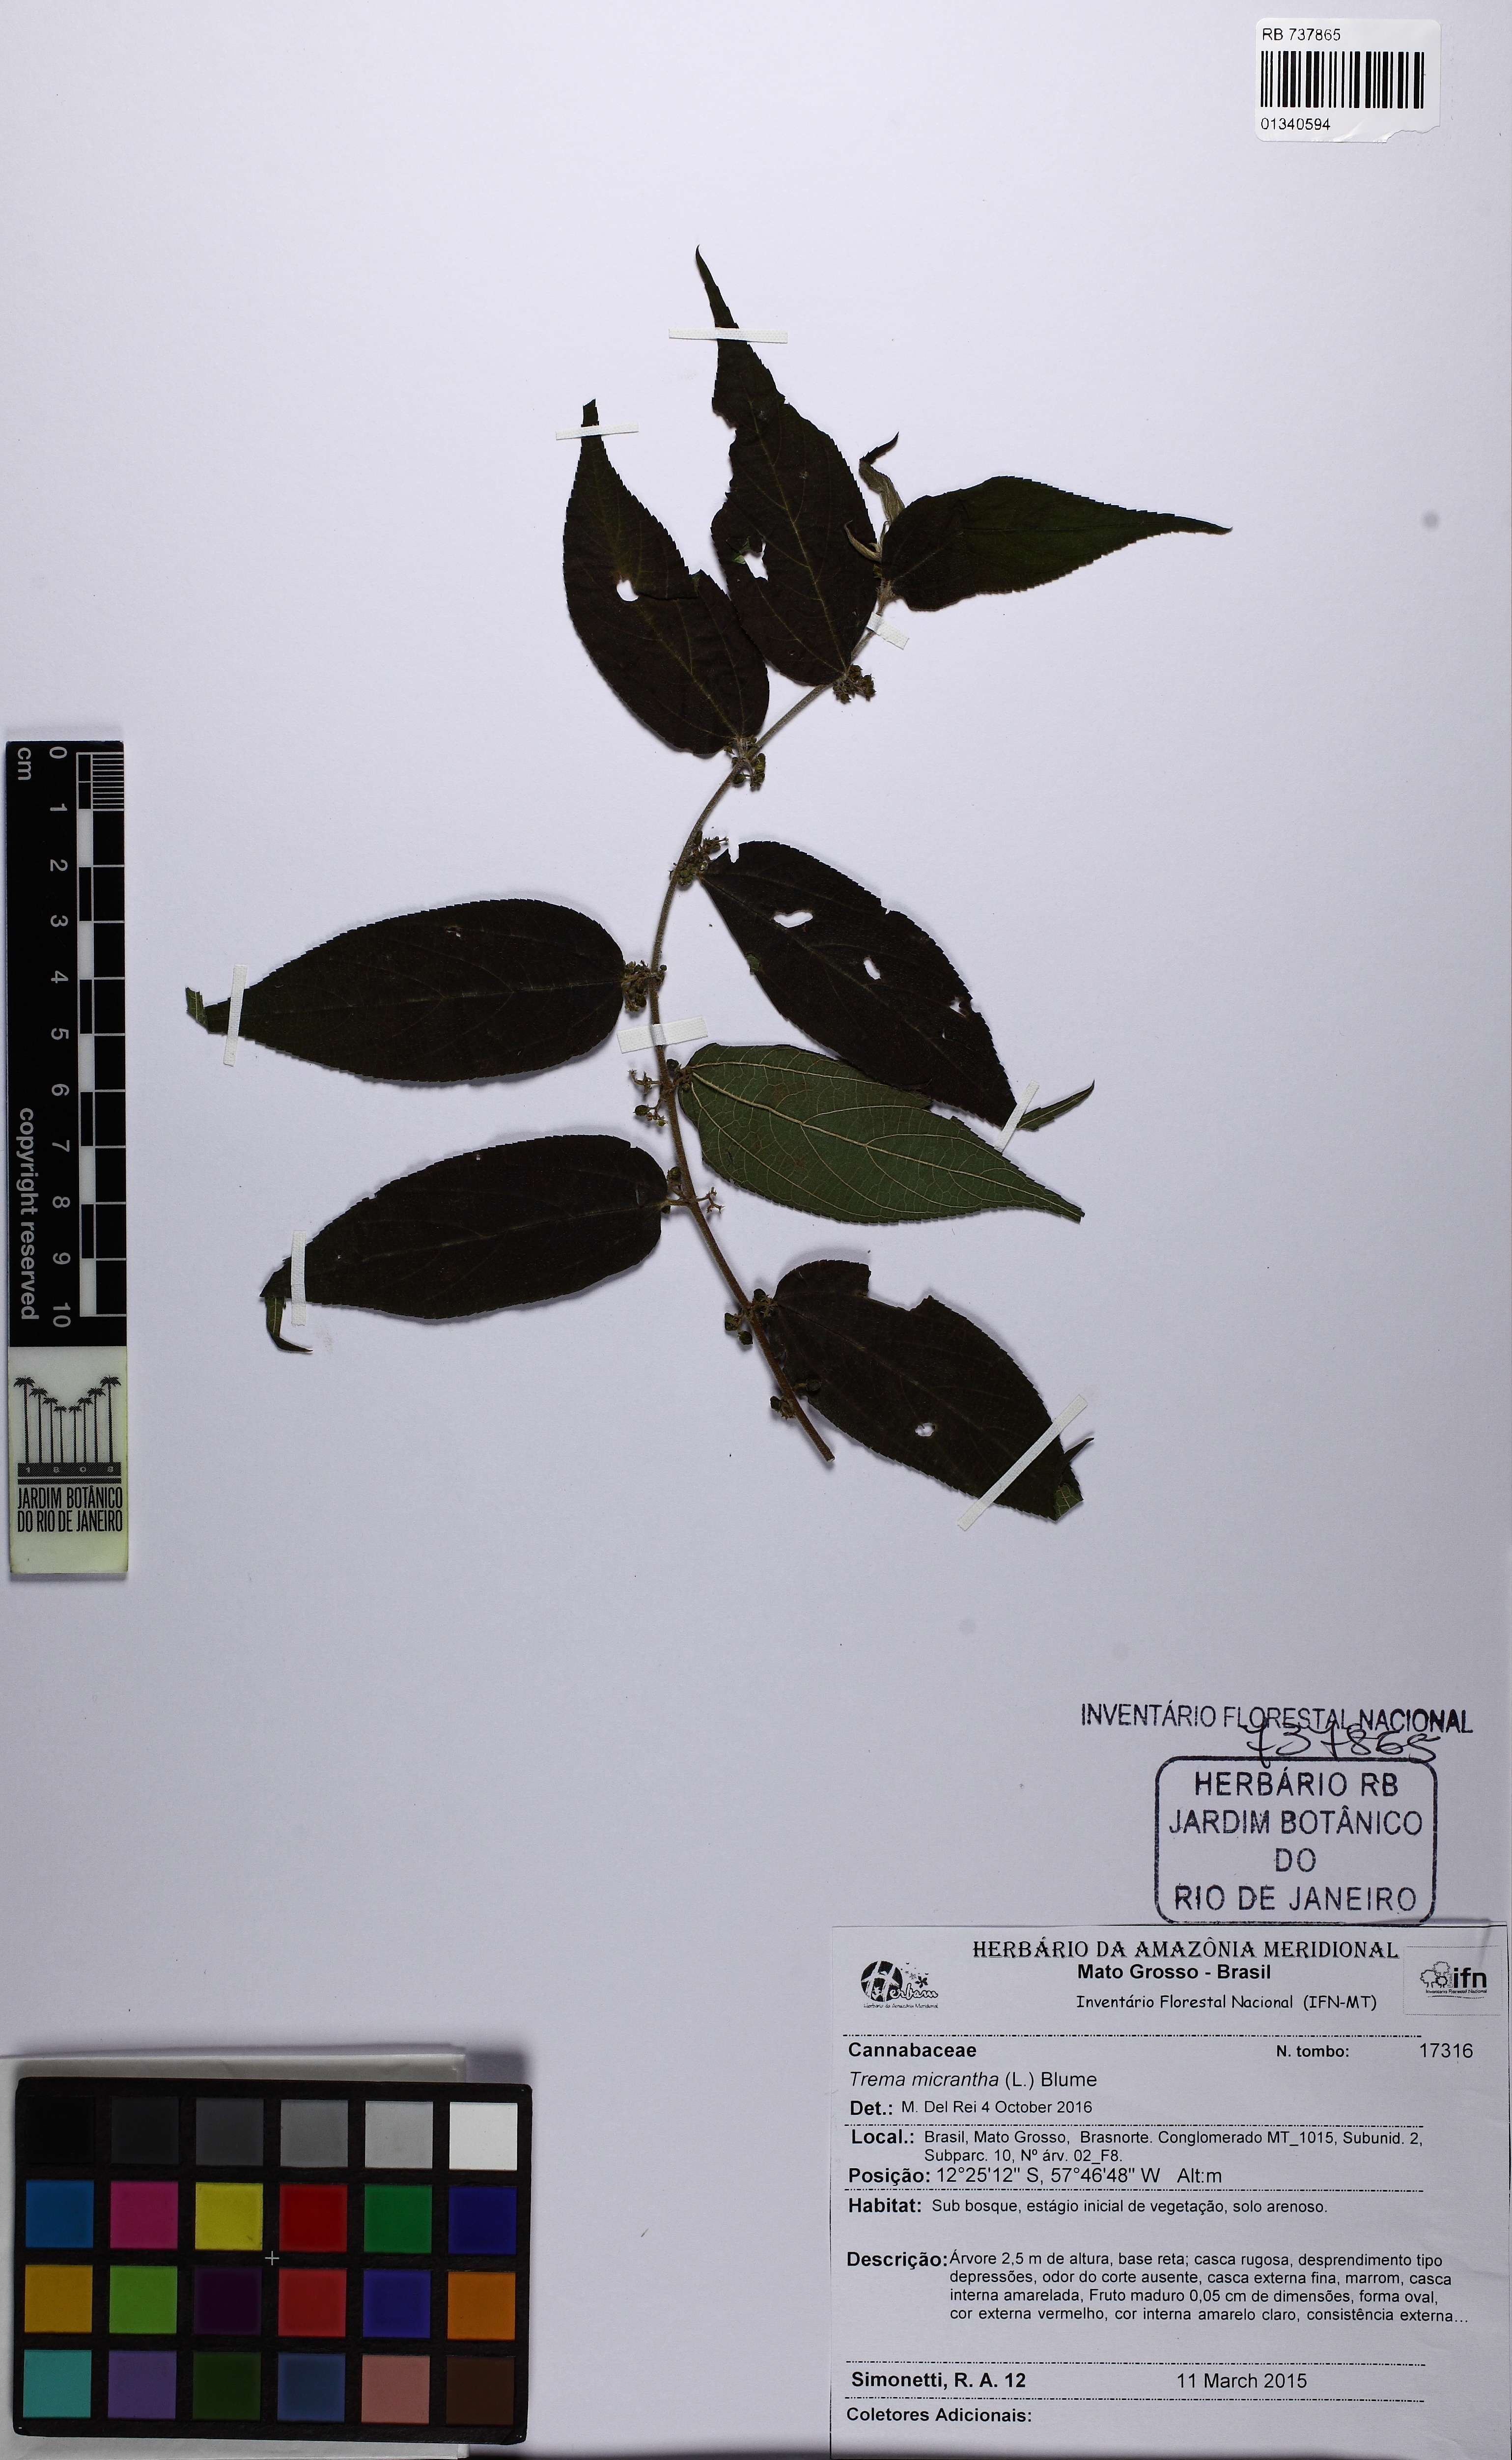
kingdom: Plantae
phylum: Tracheophyta
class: Magnoliopsida
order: Rosales
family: Cannabaceae
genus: Trema
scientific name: Trema micranthum
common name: Jamaican nettletree
